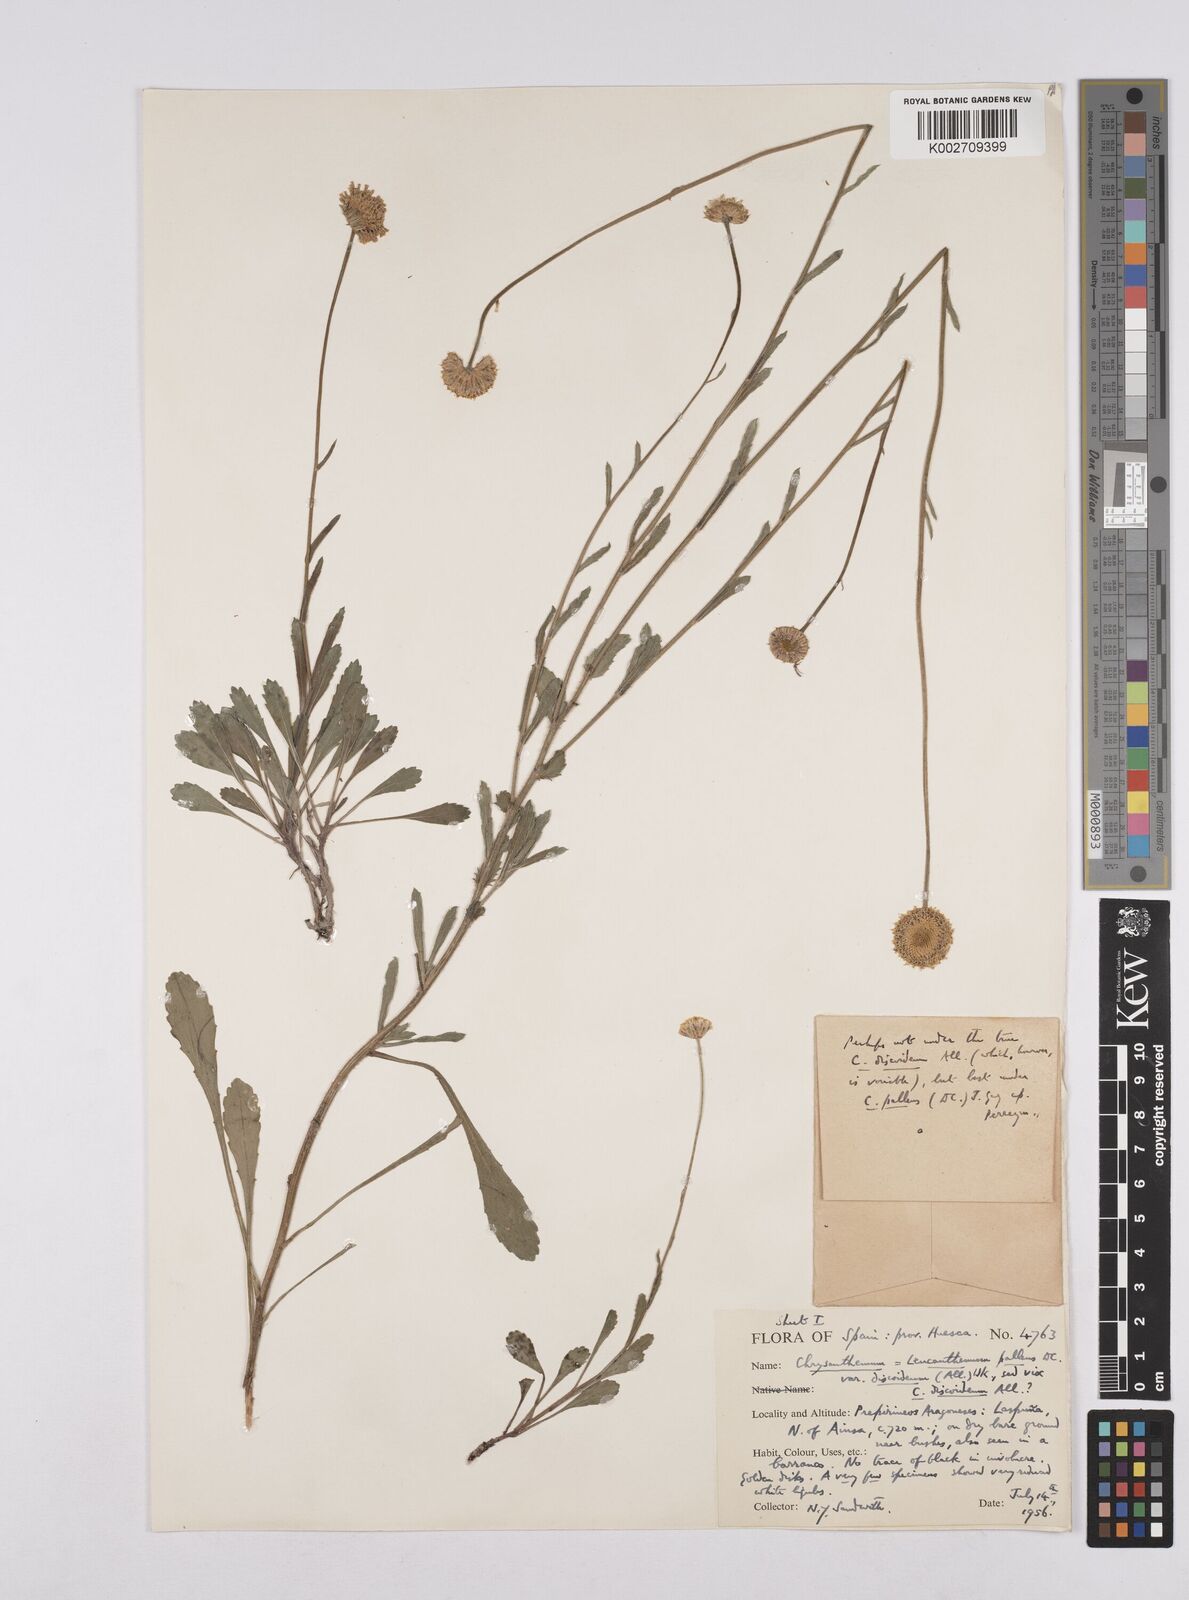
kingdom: Plantae
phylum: Tracheophyta
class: Magnoliopsida
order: Asterales
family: Asteraceae
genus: Leucanthemum
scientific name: Leucanthemum vulgare
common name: Oxeye daisy
